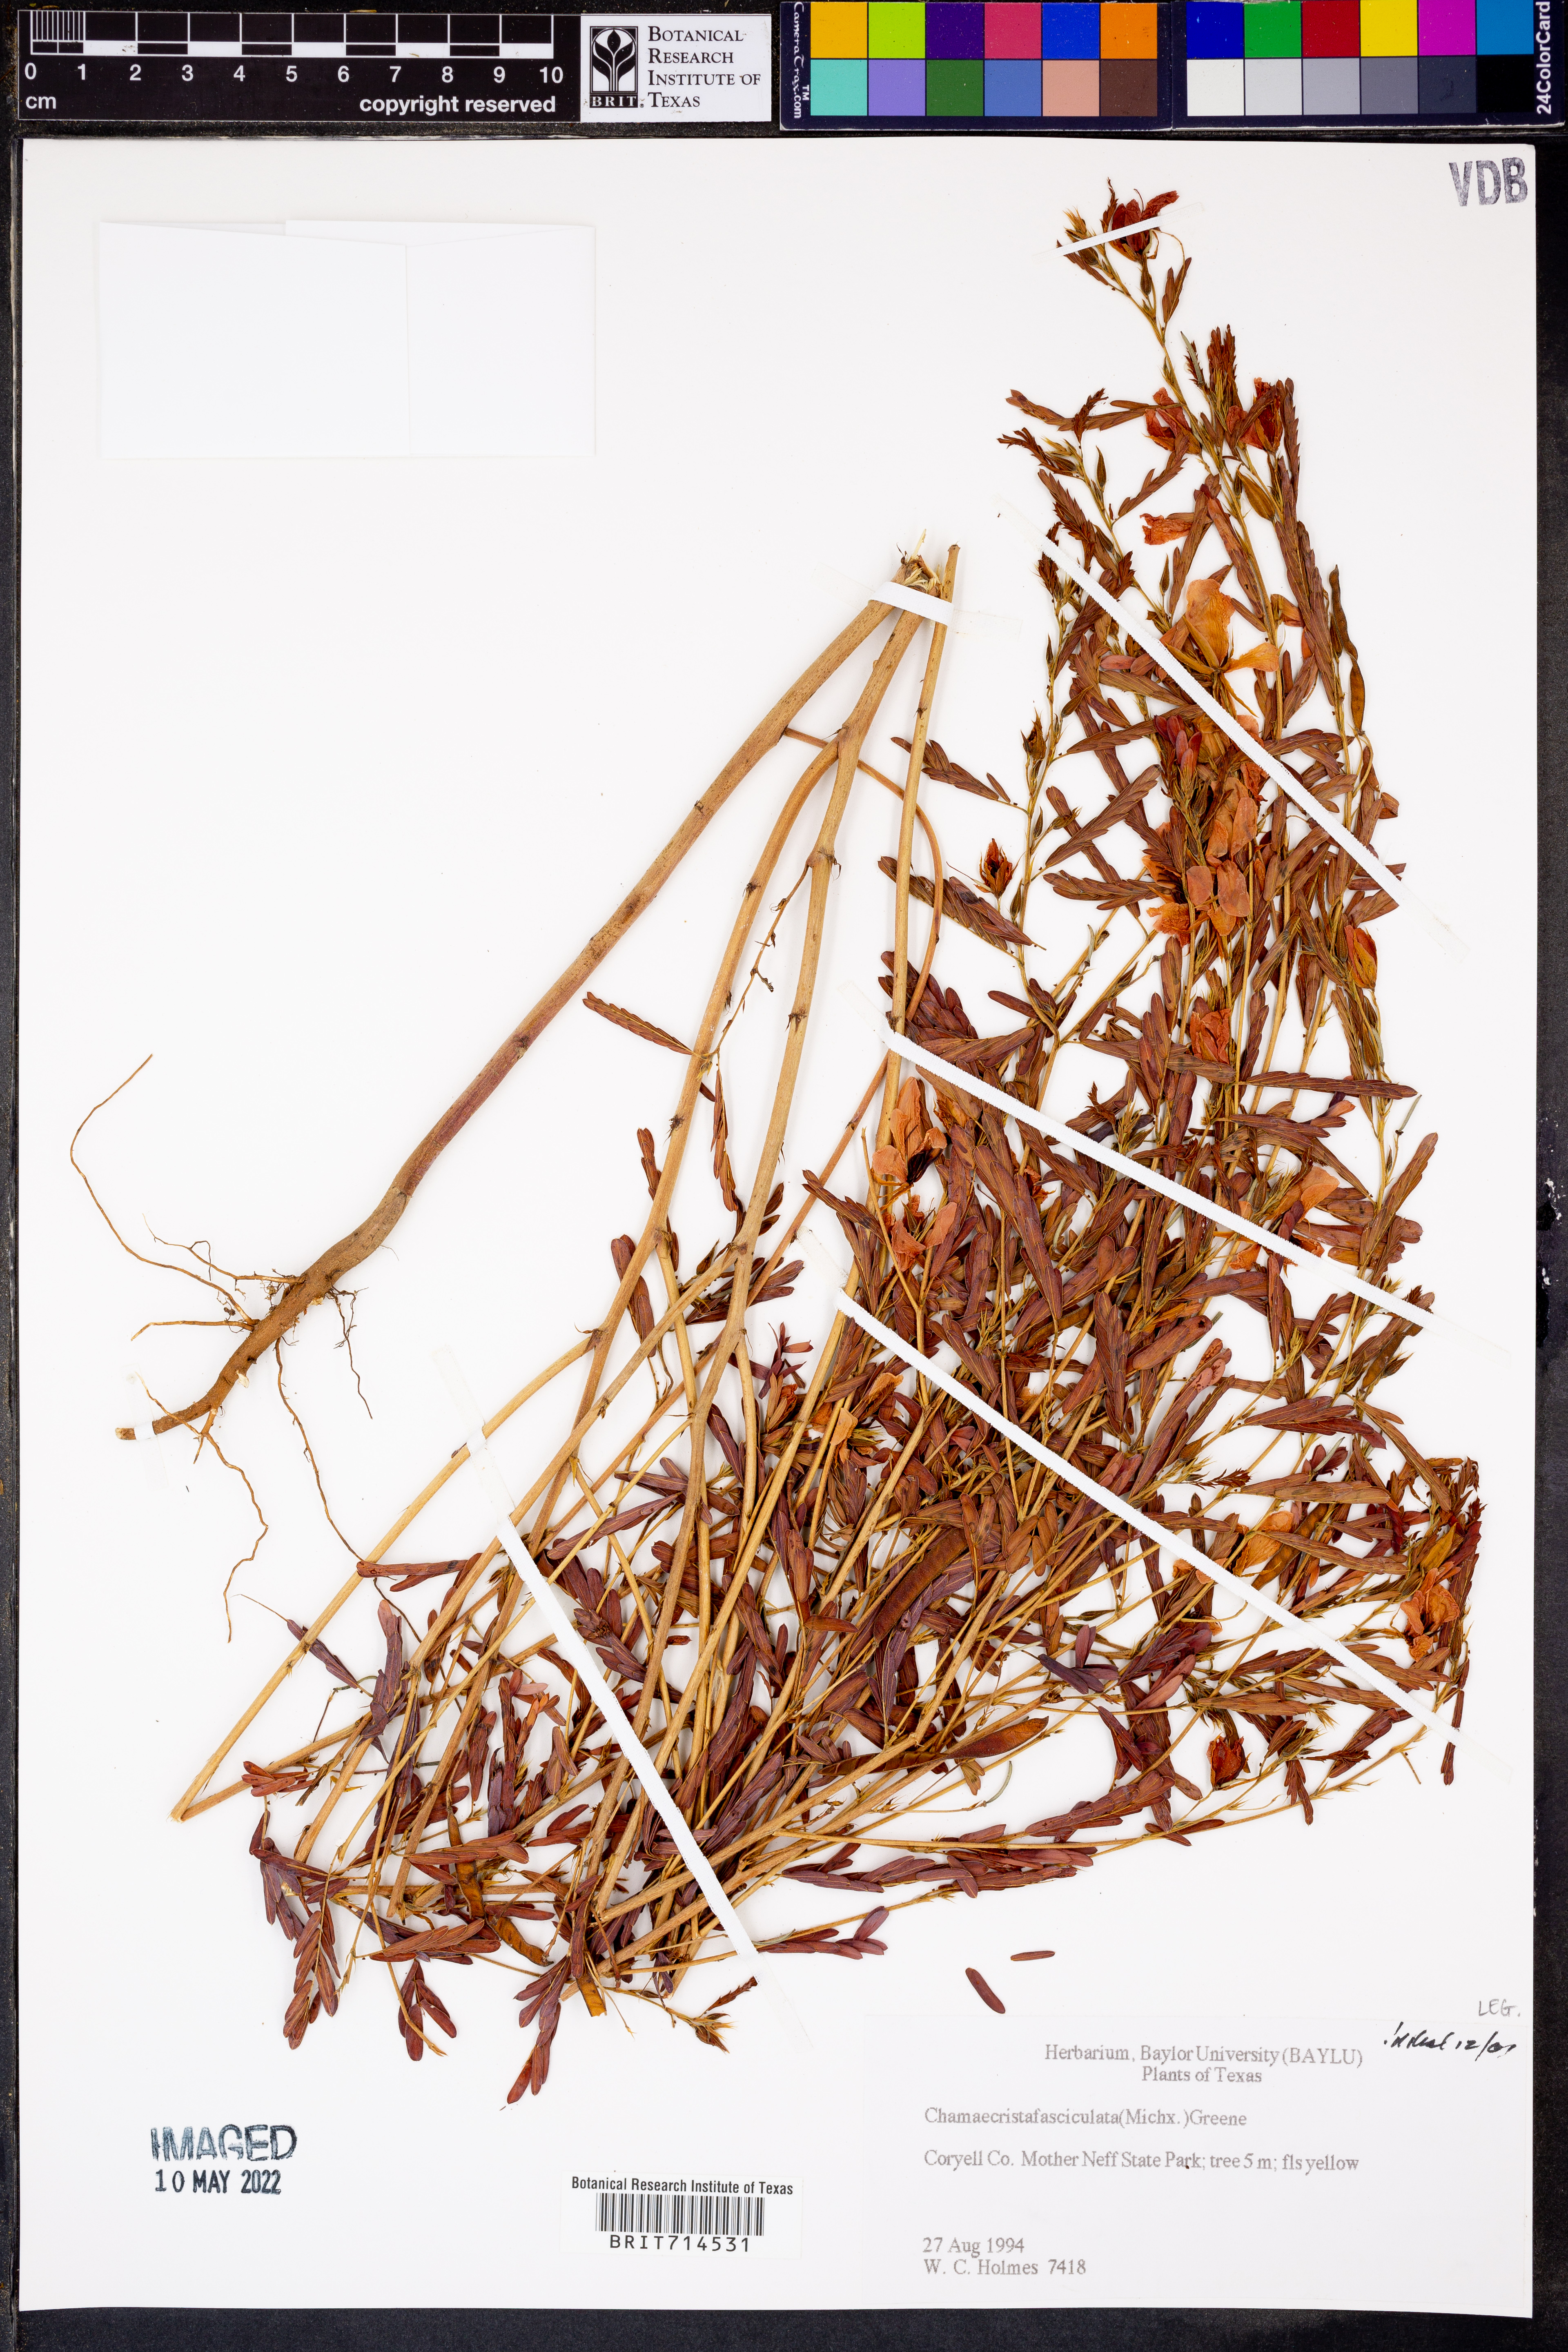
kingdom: Plantae
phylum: Tracheophyta
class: Magnoliopsida
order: Fabales
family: Fabaceae
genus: Chamaecrista
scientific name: Chamaecrista fasciculata
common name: Golden cassia
